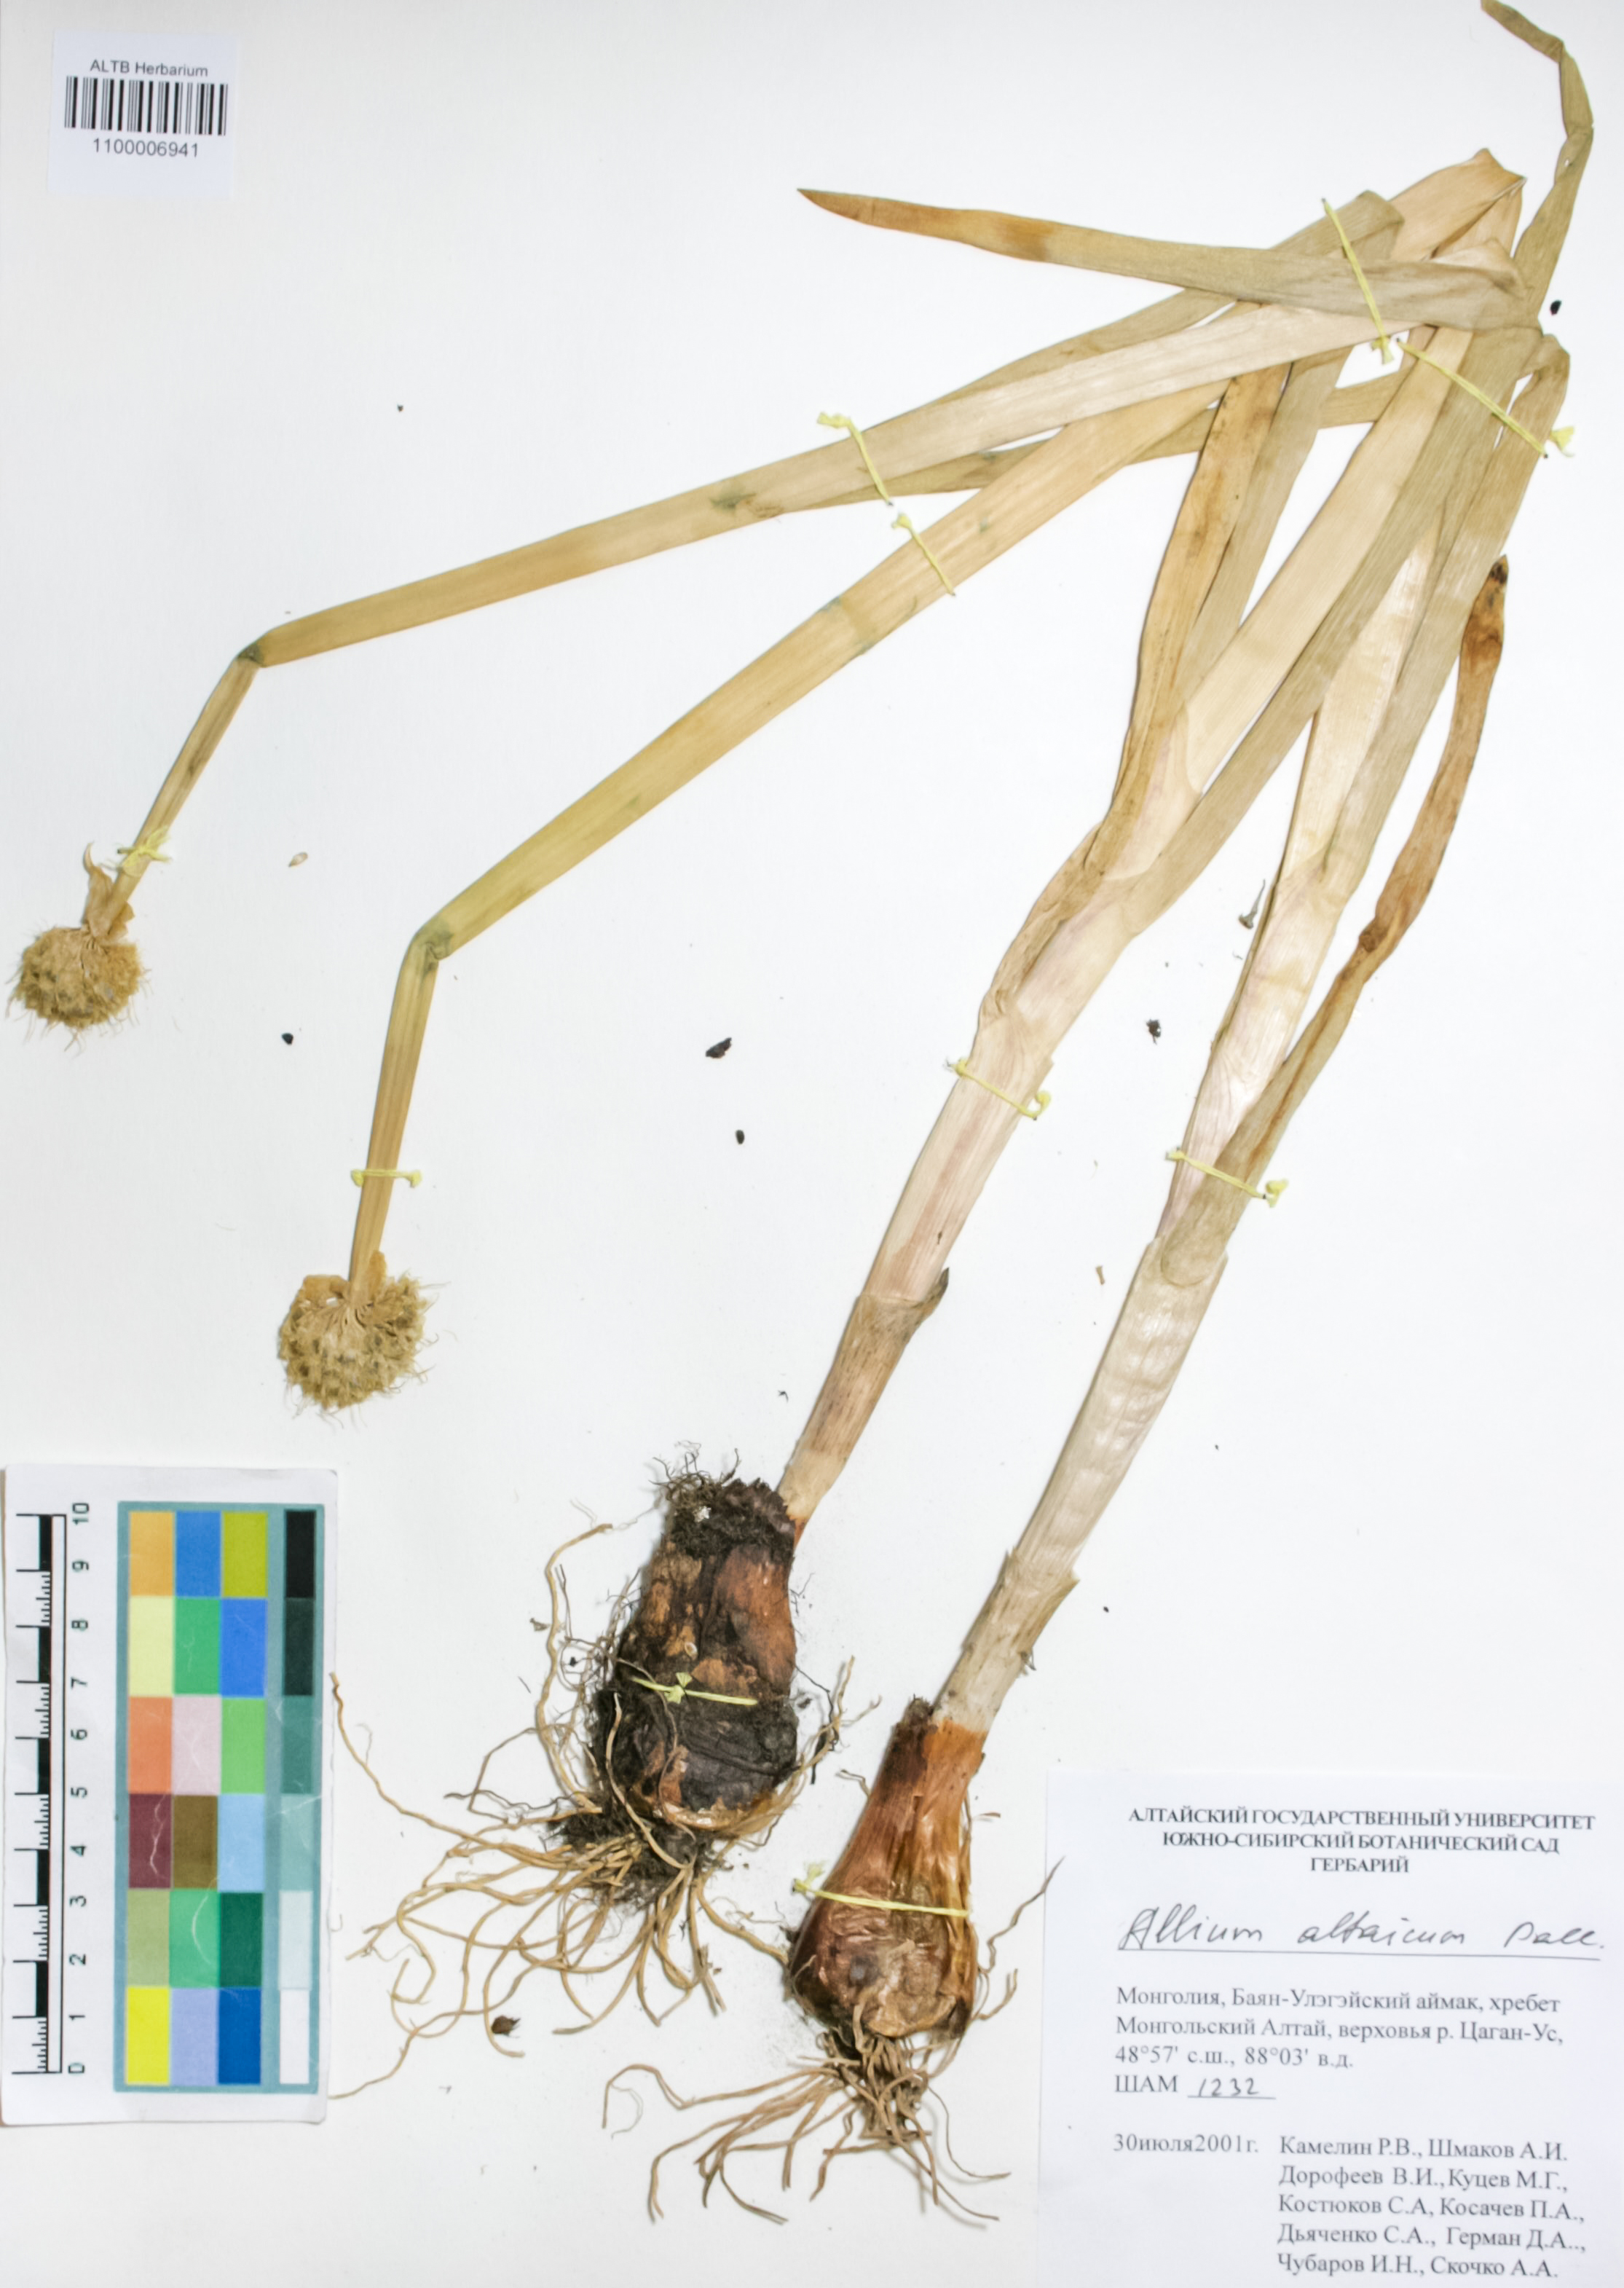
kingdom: Plantae
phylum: Tracheophyta
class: Liliopsida
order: Asparagales
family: Amaryllidaceae
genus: Allium
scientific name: Allium altaicum
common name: Altai onion
